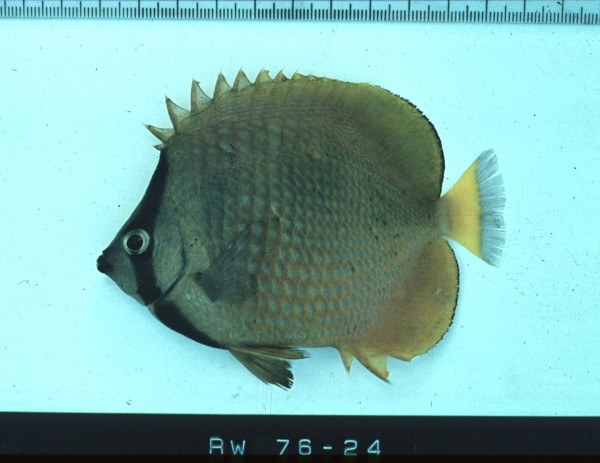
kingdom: Animalia
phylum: Chordata
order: Perciformes
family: Chaetodontidae
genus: Chaetodon
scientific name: Chaetodon kleinii
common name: Klein's butterflyfish
